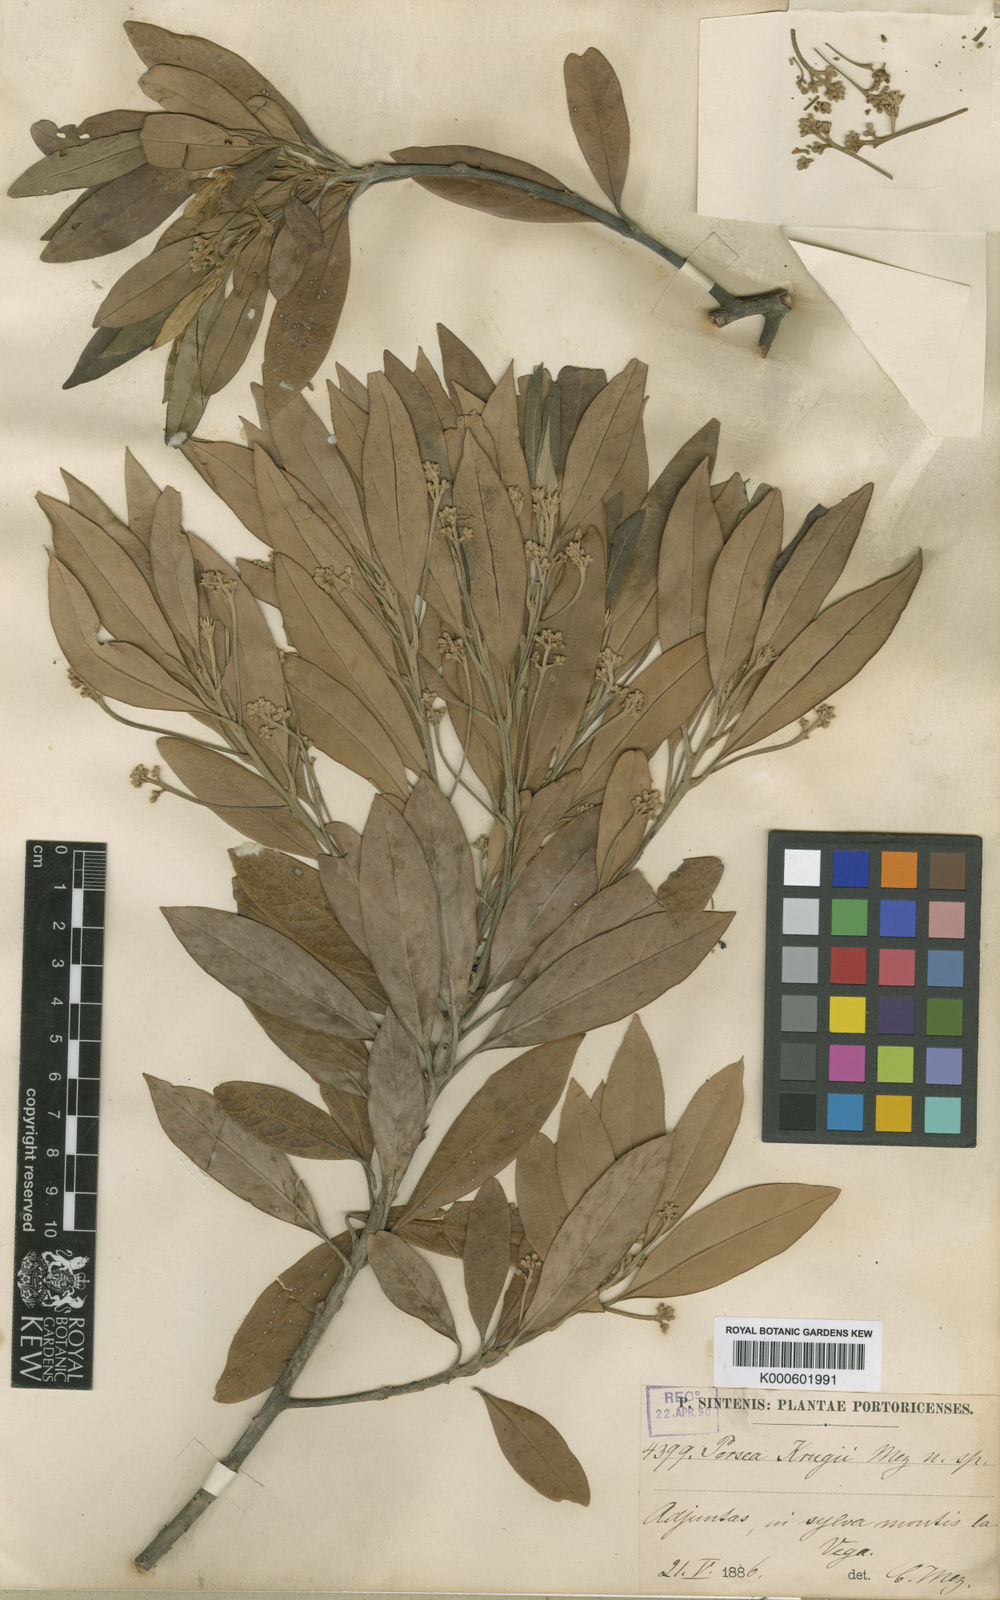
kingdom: Plantae
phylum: Tracheophyta
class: Magnoliopsida
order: Laurales
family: Lauraceae
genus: Persea
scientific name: Persea krugii
